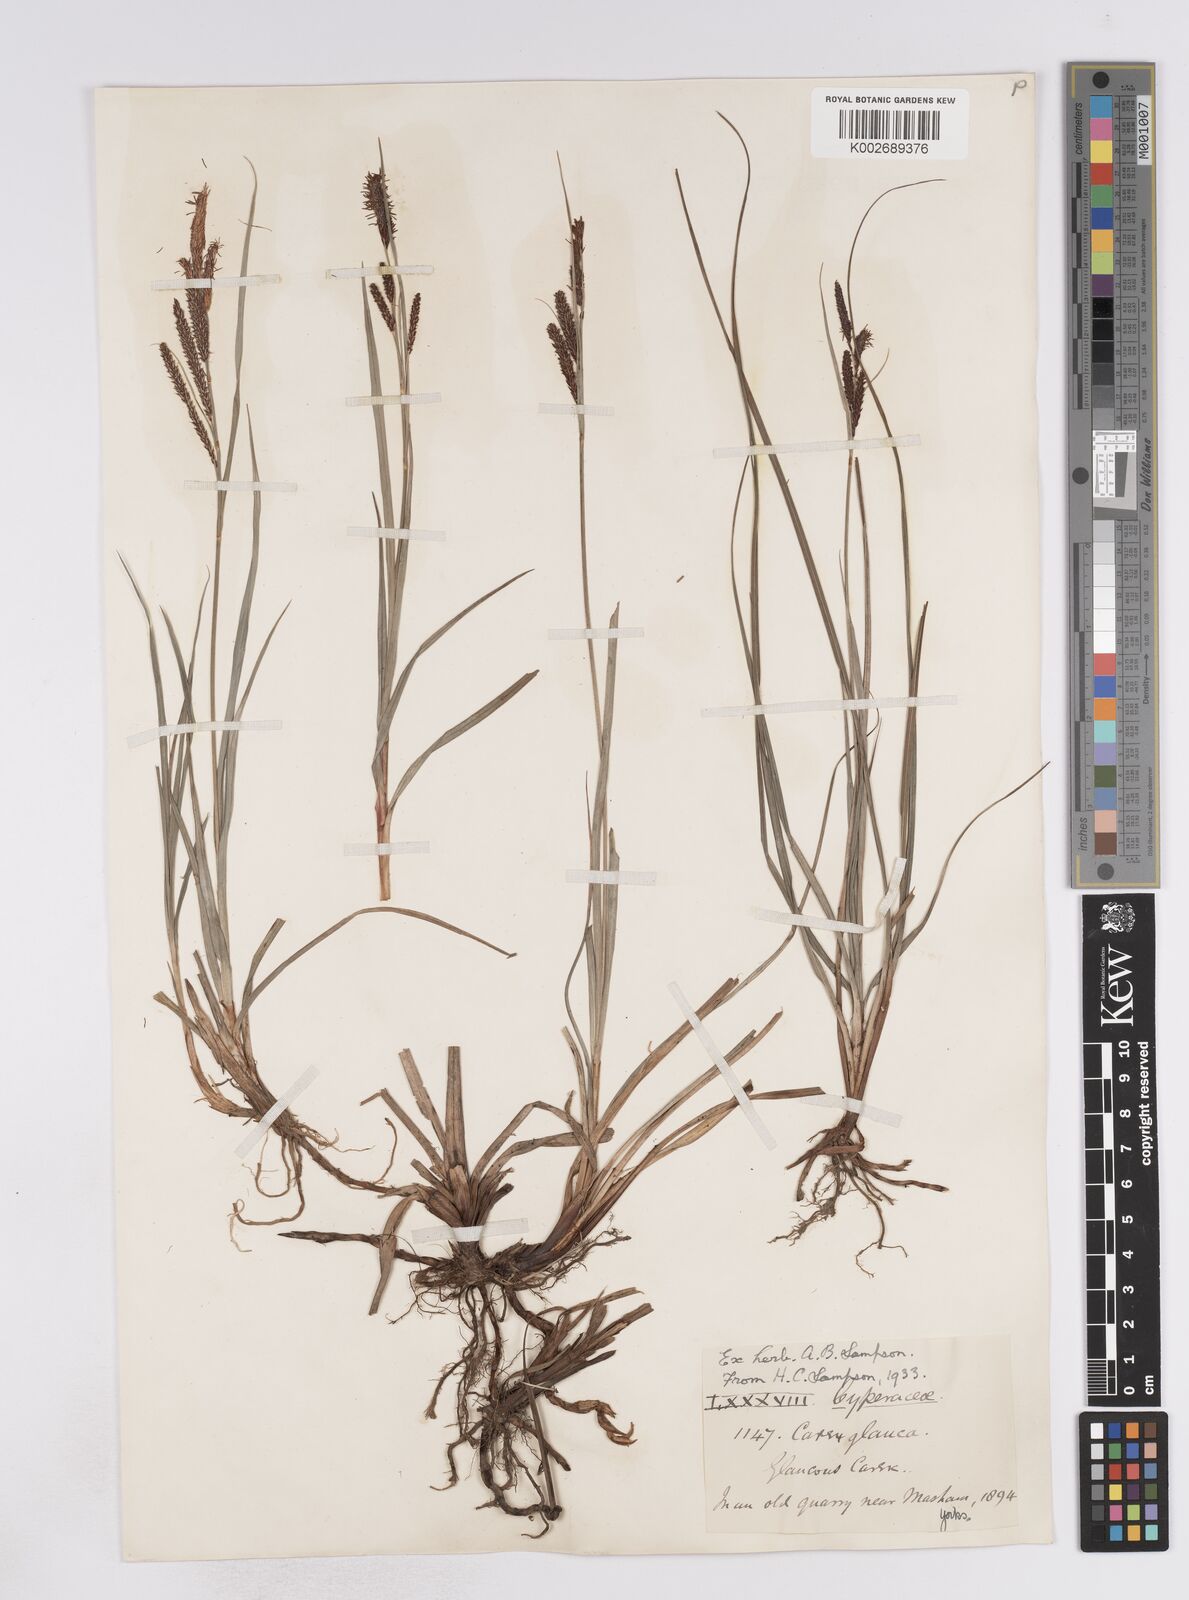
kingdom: Plantae
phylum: Tracheophyta
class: Liliopsida
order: Poales
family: Cyperaceae
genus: Carex
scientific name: Carex flacca
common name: Glaucous sedge
